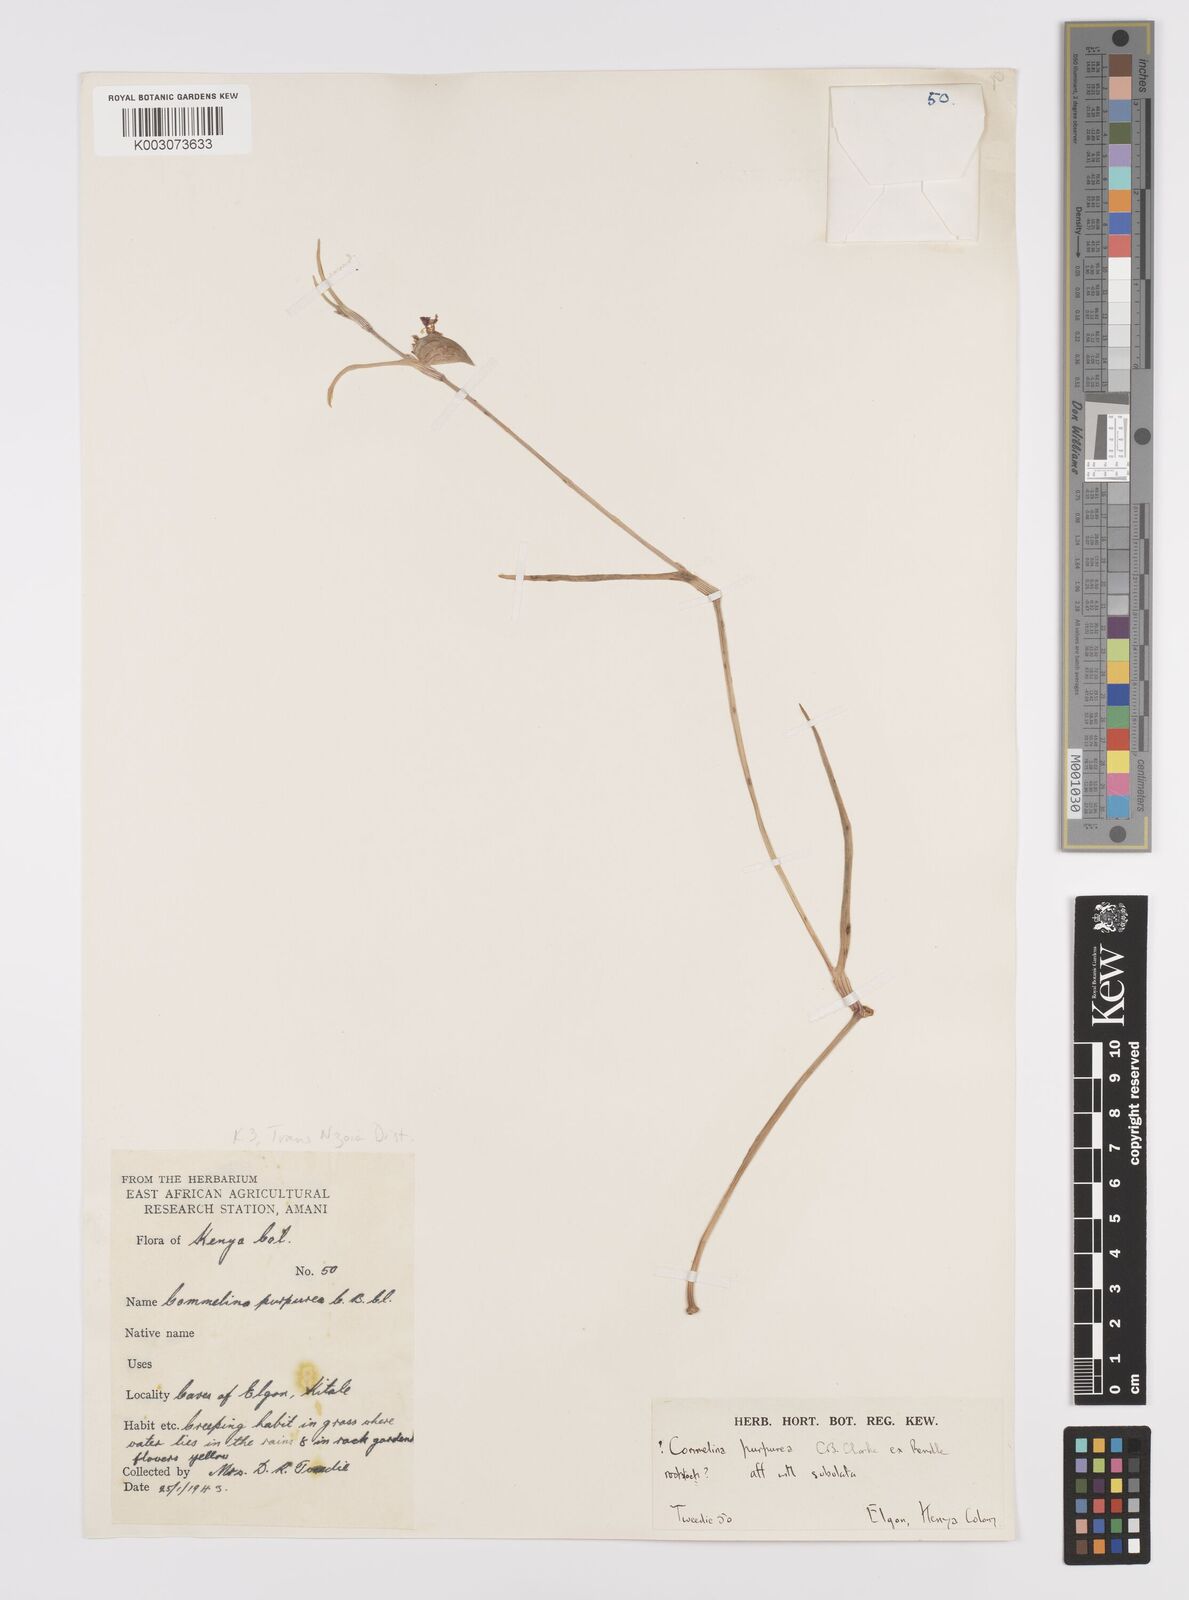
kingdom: Plantae
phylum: Tracheophyta
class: Liliopsida
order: Commelinales
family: Commelinaceae
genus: Commelina
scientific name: Commelina purpurea
